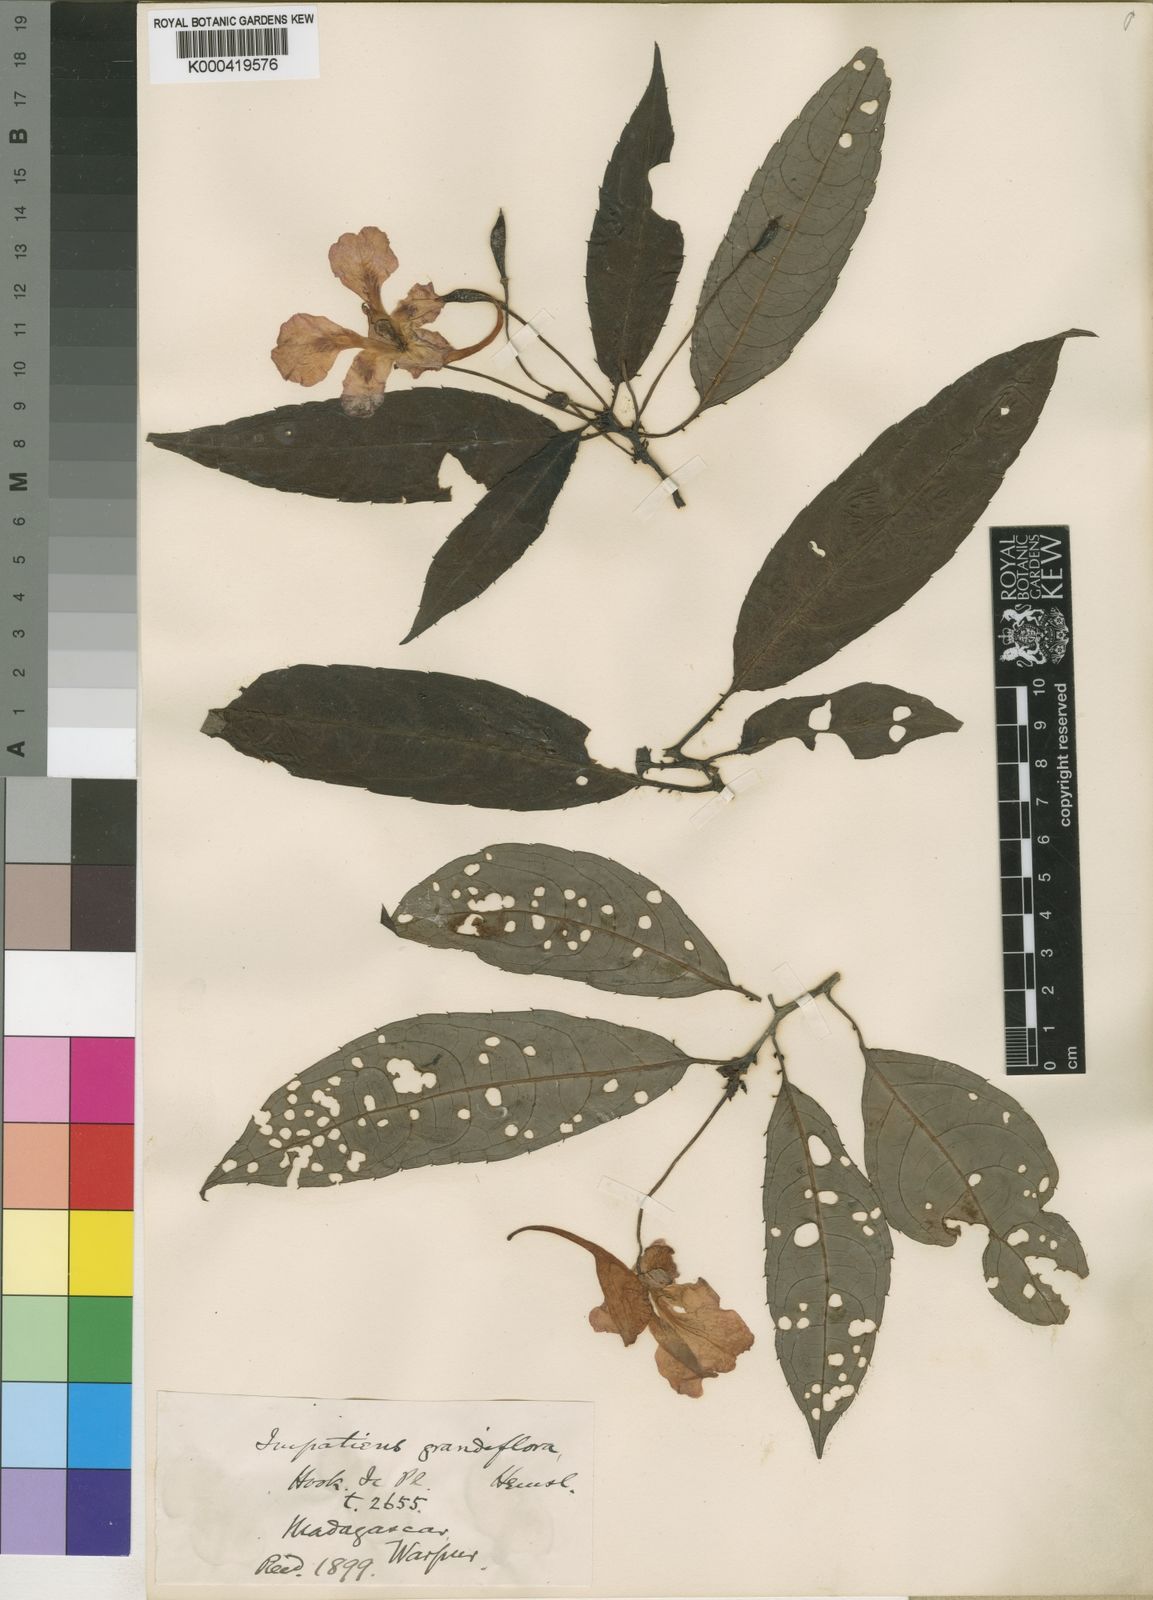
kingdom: Plantae
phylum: Tracheophyta
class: Magnoliopsida
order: Ericales
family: Balsaminaceae
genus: Impatiens
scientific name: Impatiens humblotiana
